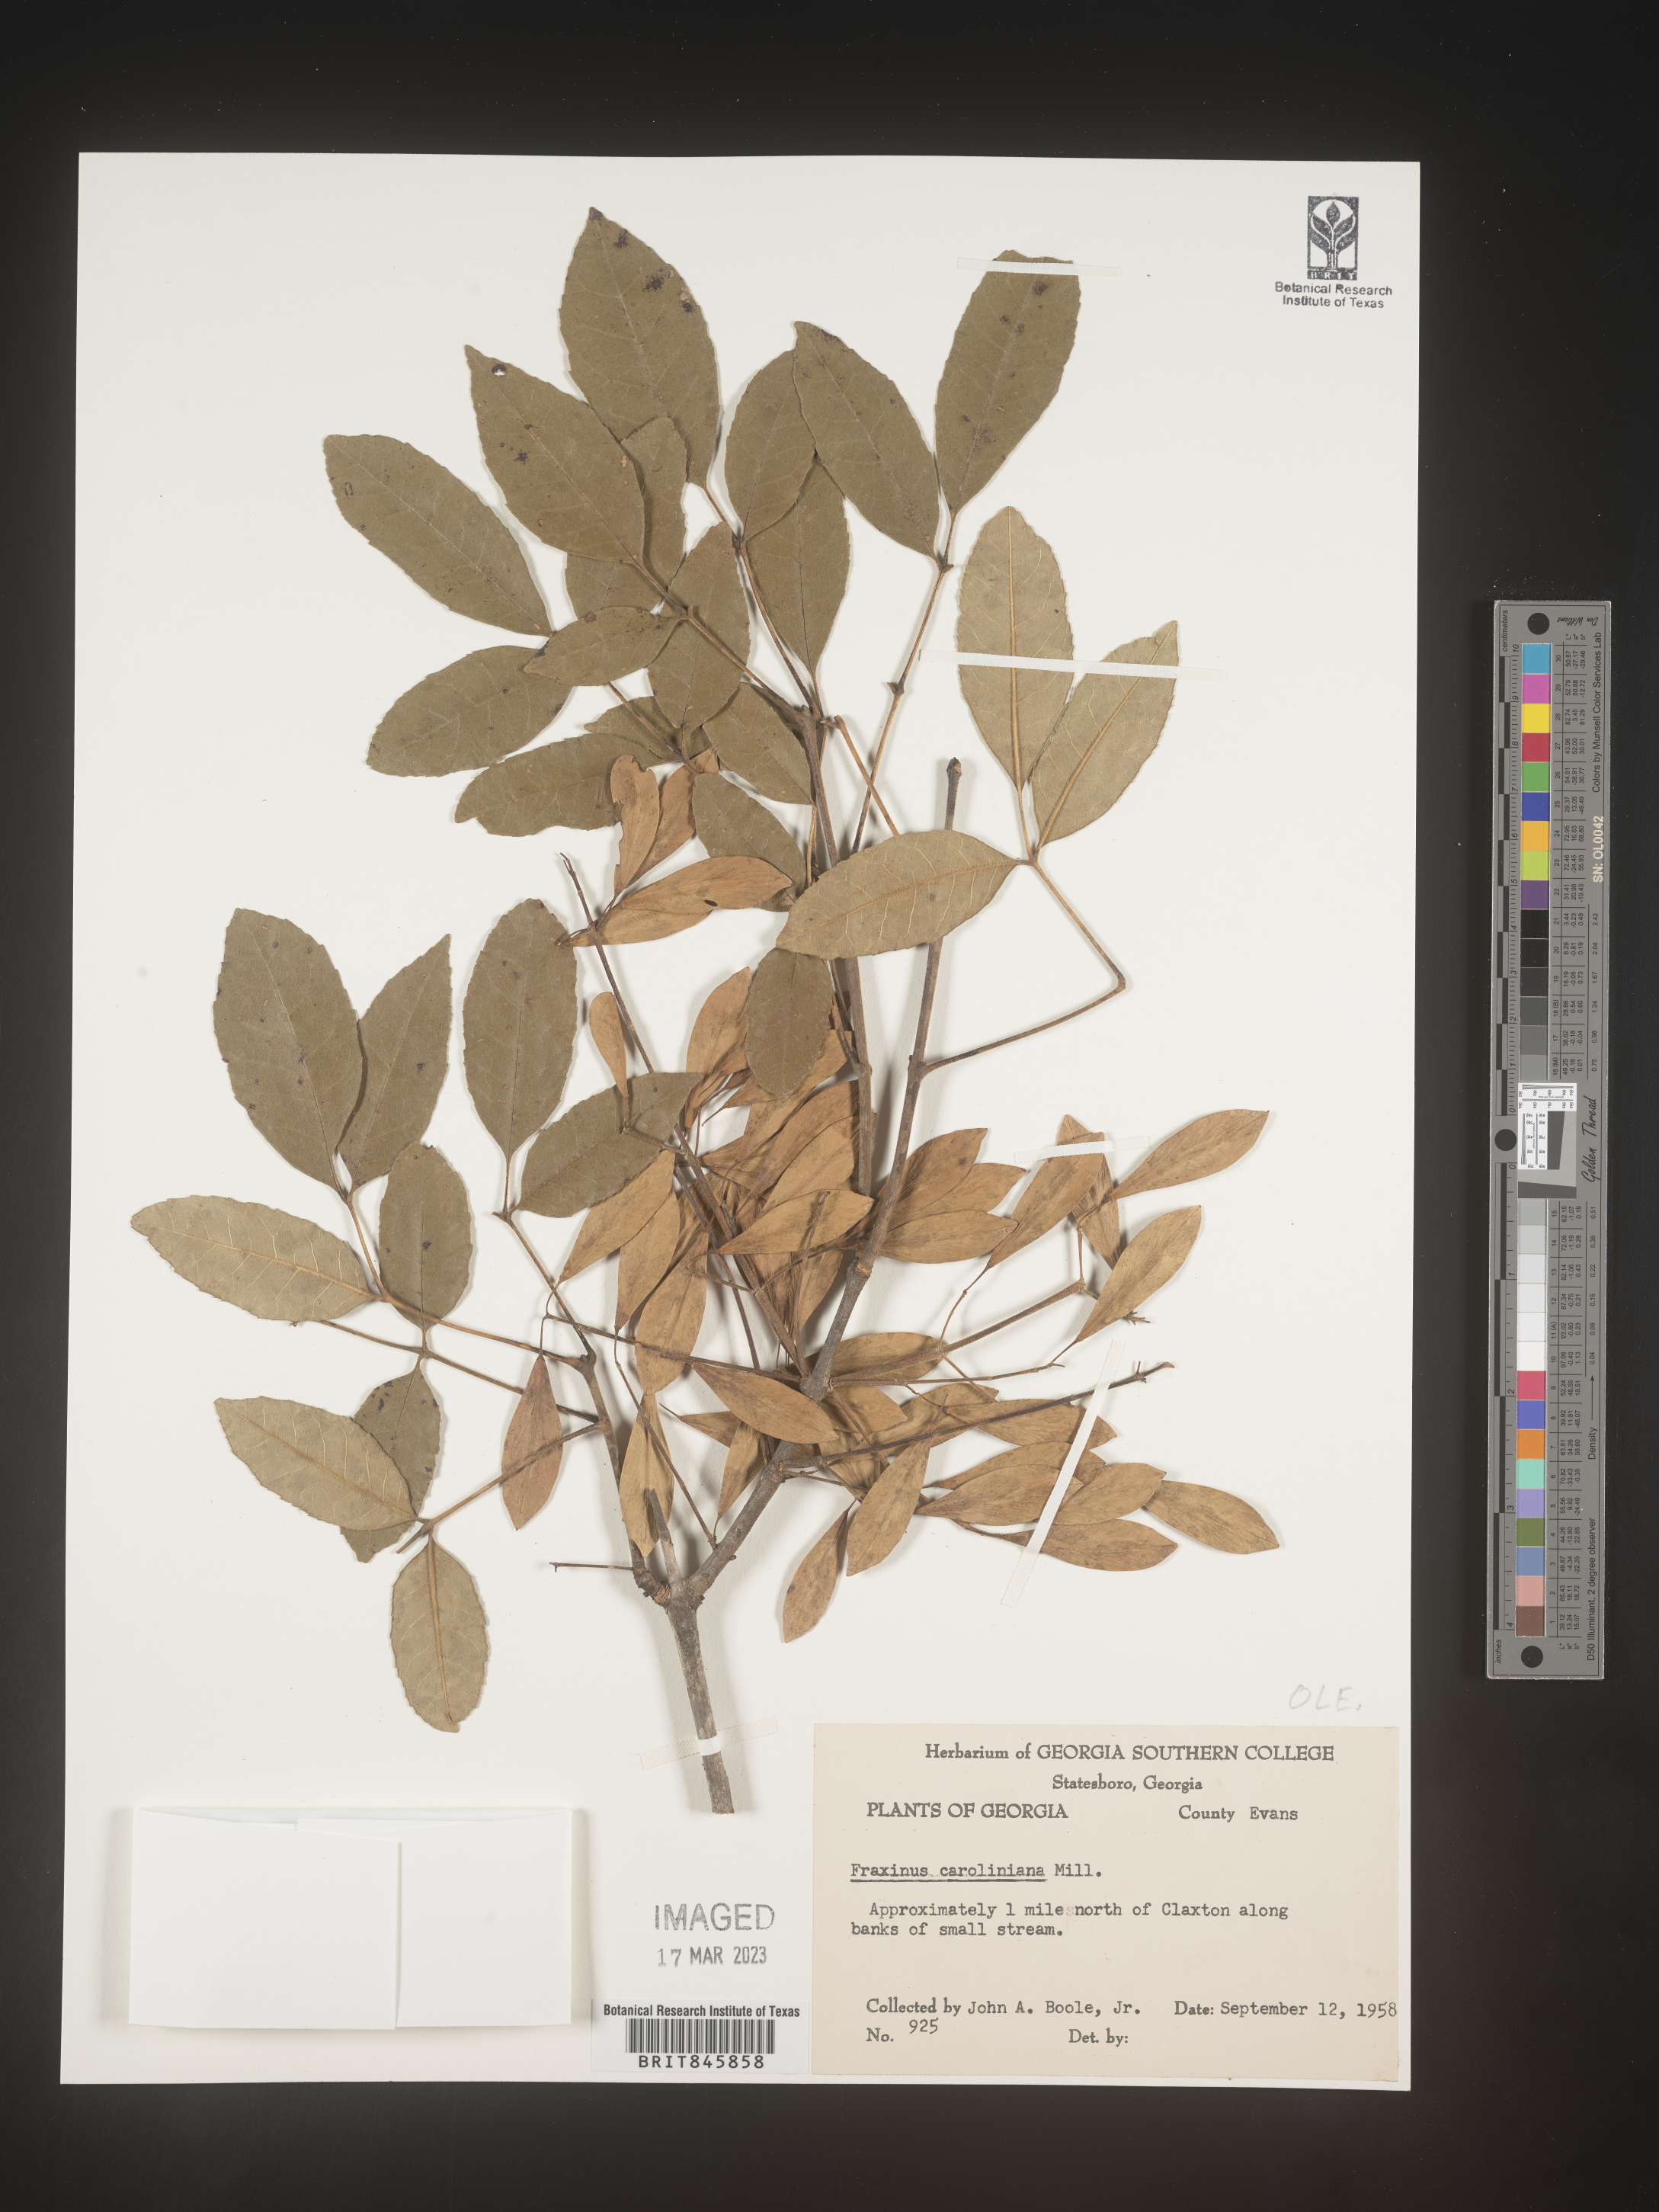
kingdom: Plantae
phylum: Tracheophyta
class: Magnoliopsida
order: Lamiales
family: Oleaceae
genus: Fraxinus
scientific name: Fraxinus caroliniana
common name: Carolina ash
